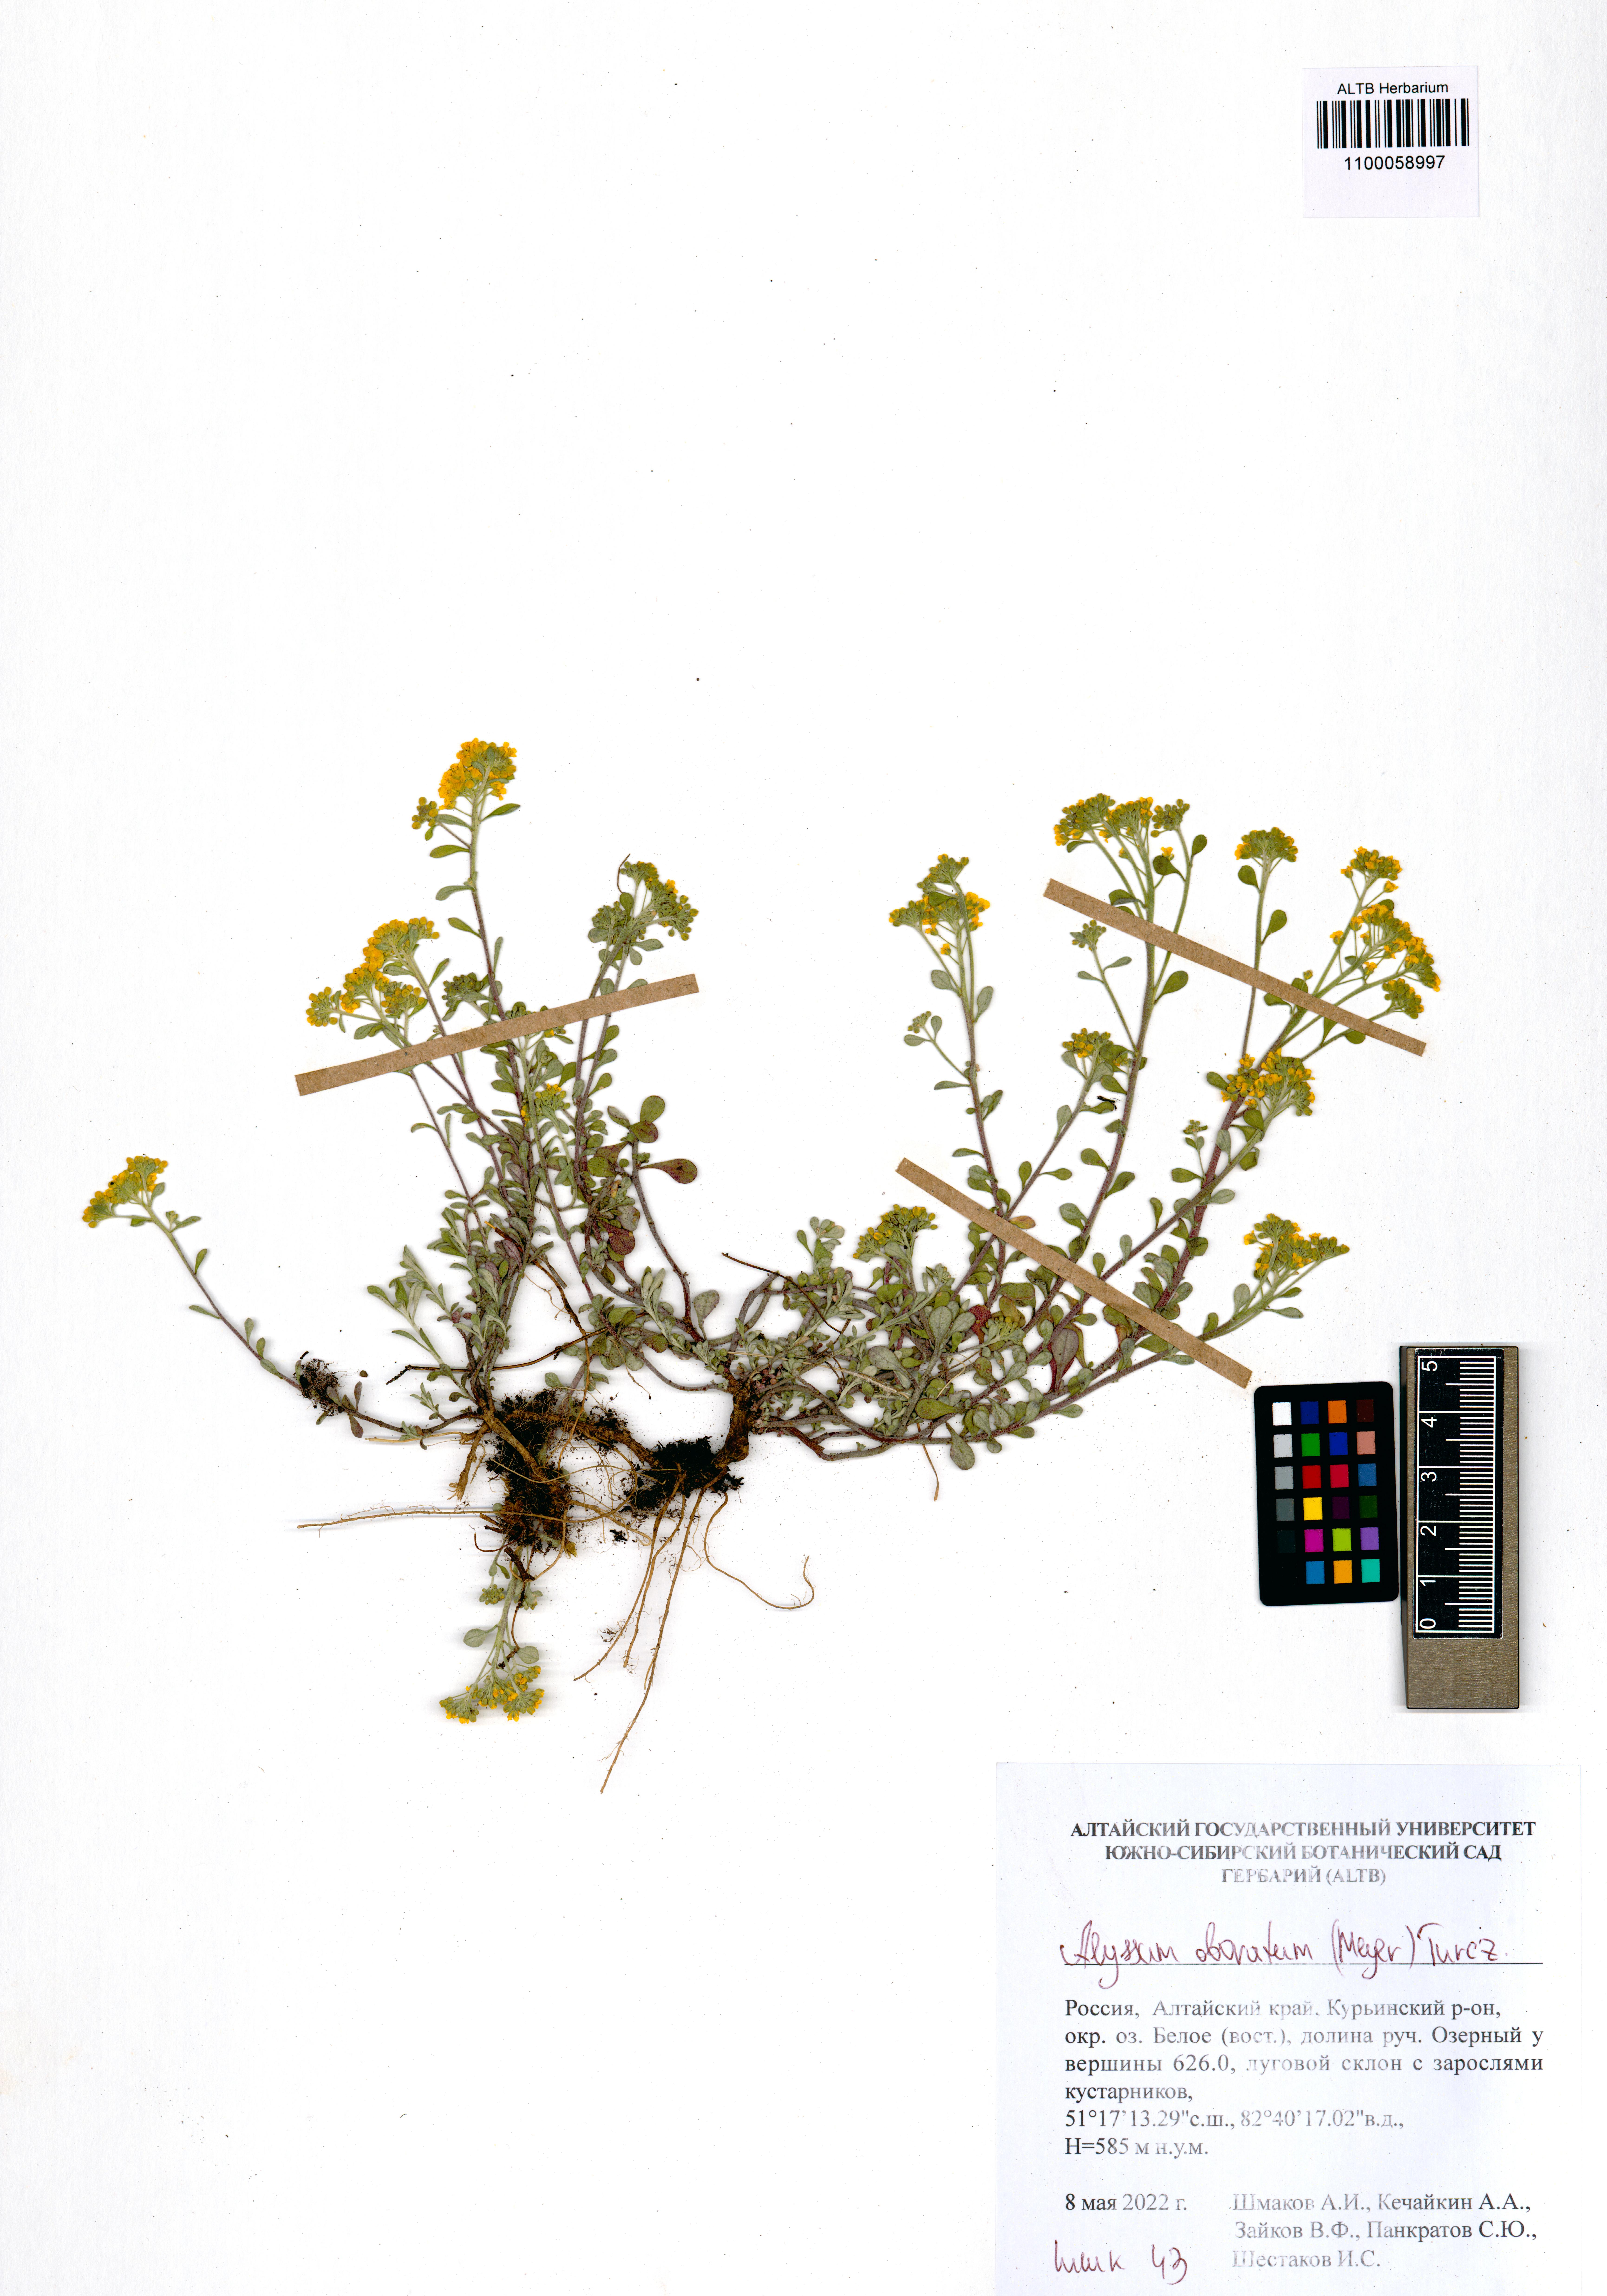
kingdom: Plantae
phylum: Tracheophyta
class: Magnoliopsida
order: Brassicales
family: Brassicaceae
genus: Odontarrhena
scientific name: Odontarrhena obovata
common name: American alyssum
